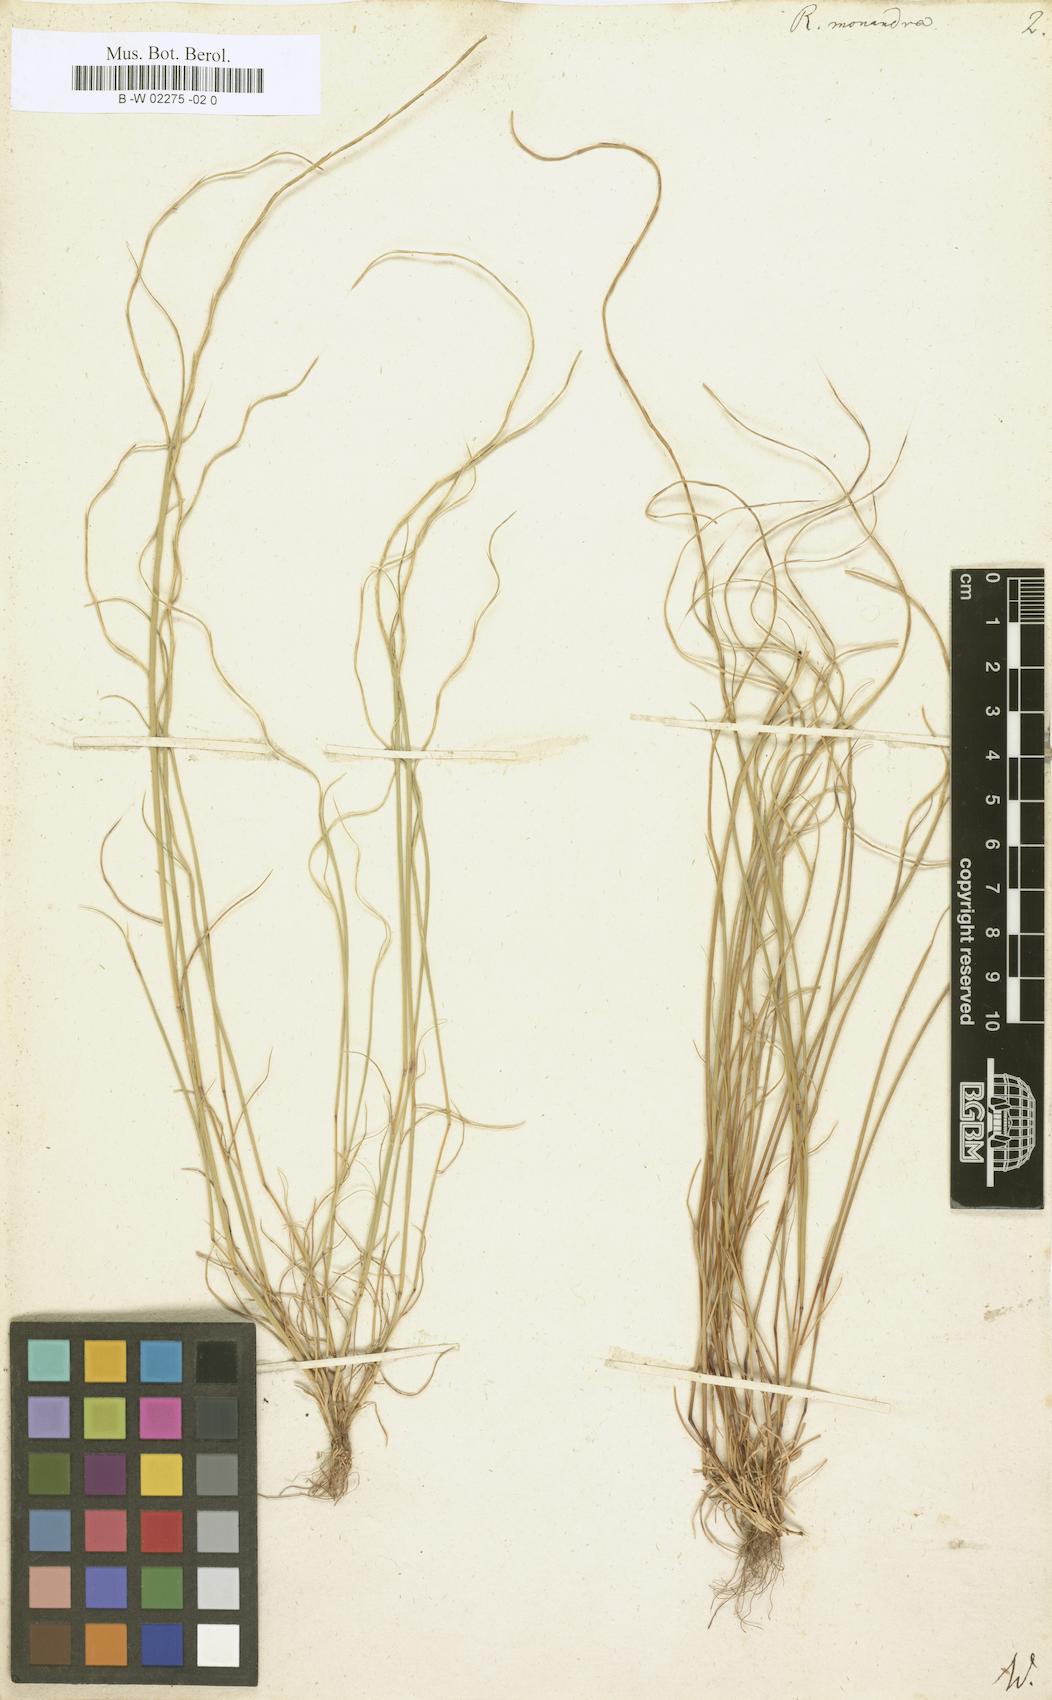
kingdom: Plantae
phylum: Tracheophyta
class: Liliopsida
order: Poales
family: Poaceae
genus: Festuca
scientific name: Festuca incurva
